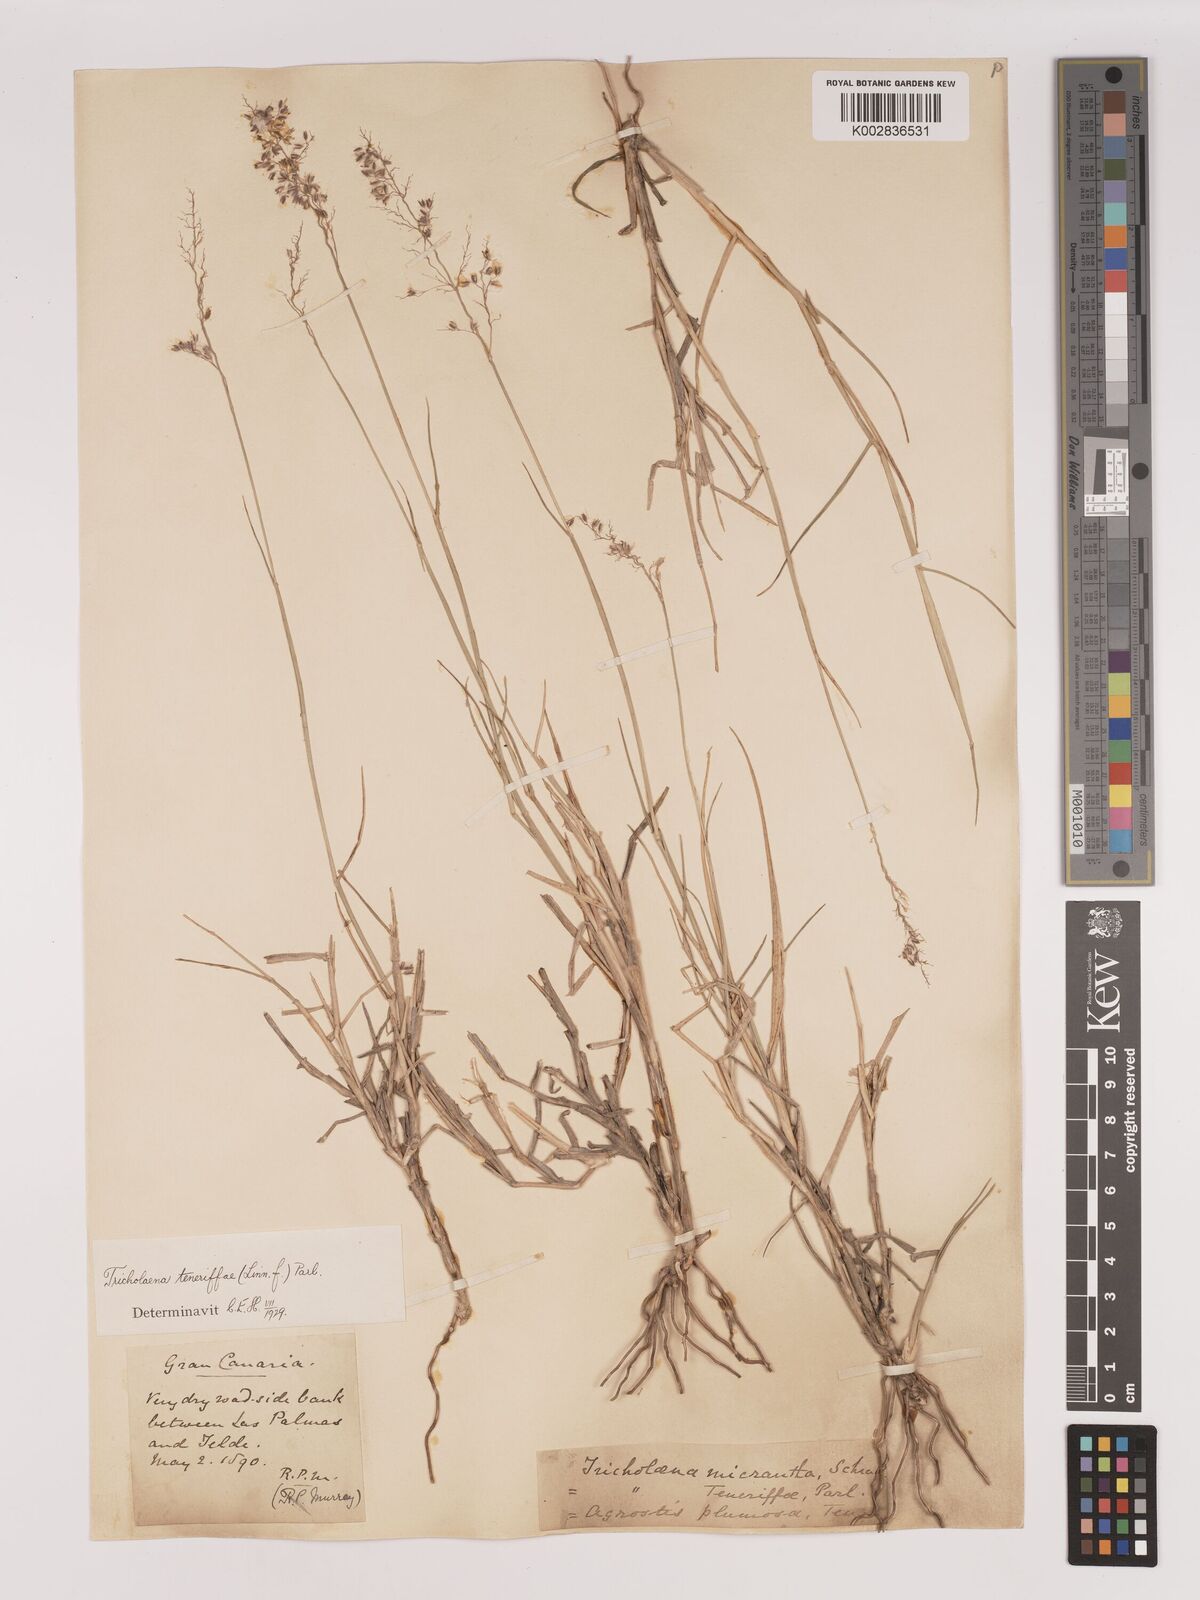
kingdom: Plantae
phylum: Tracheophyta
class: Liliopsida
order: Poales
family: Poaceae
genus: Tricholaena
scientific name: Tricholaena teneriffae
